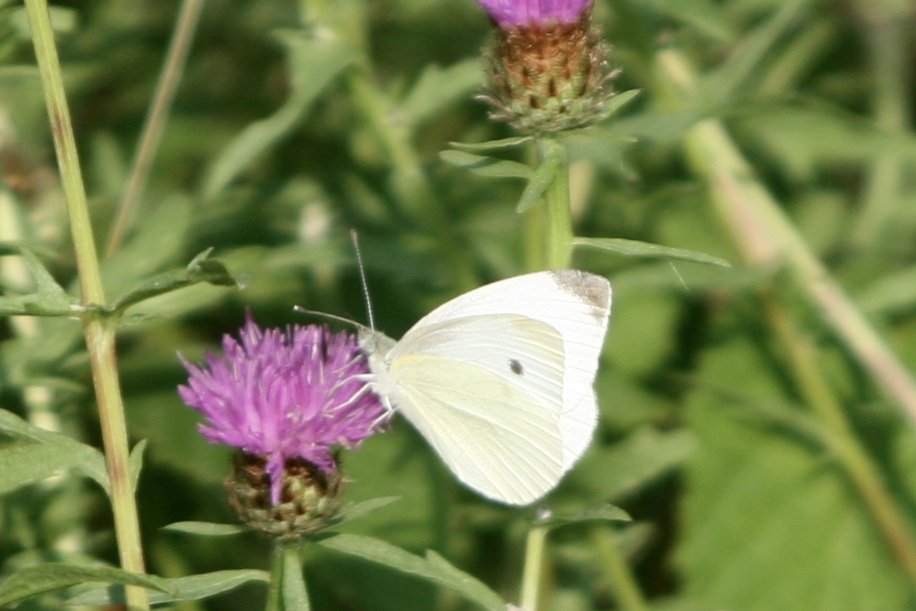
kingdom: Animalia
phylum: Arthropoda
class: Insecta
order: Lepidoptera
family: Pieridae
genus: Pieris
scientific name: Pieris rapae
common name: Cabbage White
